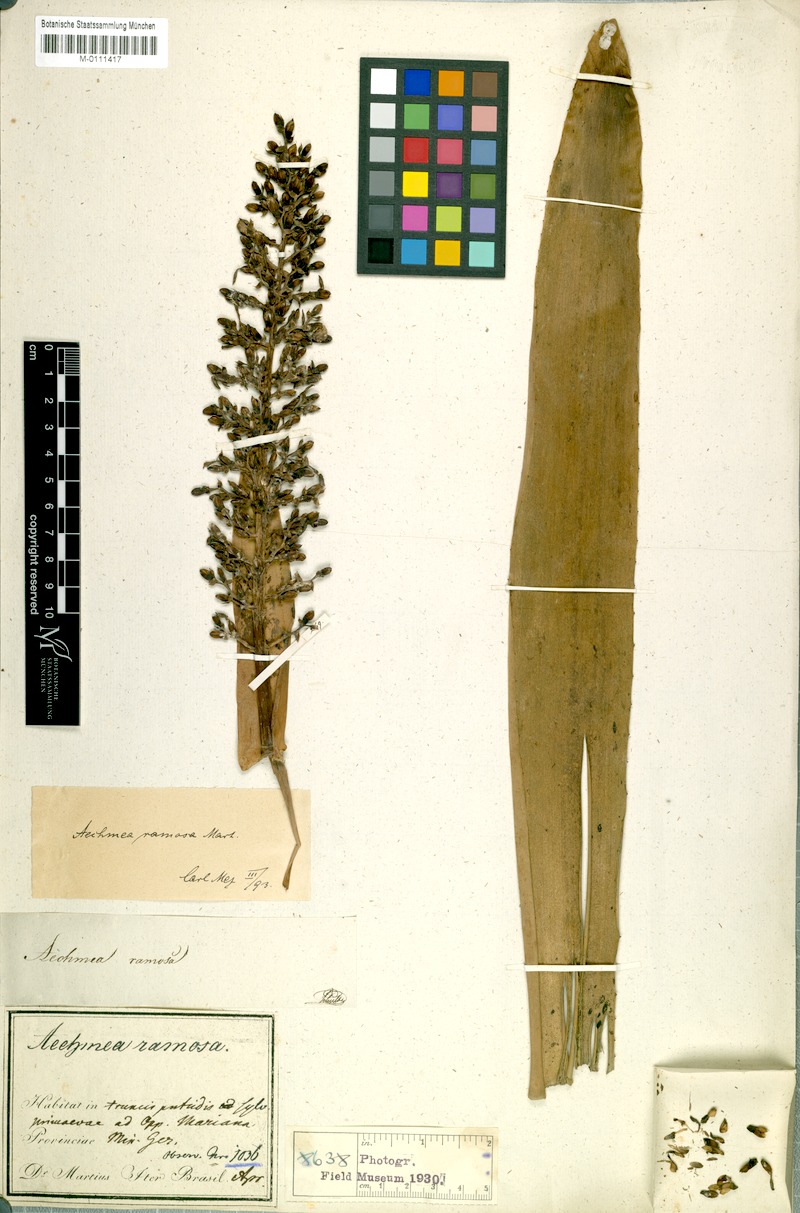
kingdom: Plantae
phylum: Tracheophyta
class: Liliopsida
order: Poales
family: Bromeliaceae
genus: Aechmea
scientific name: Aechmea ramosa
